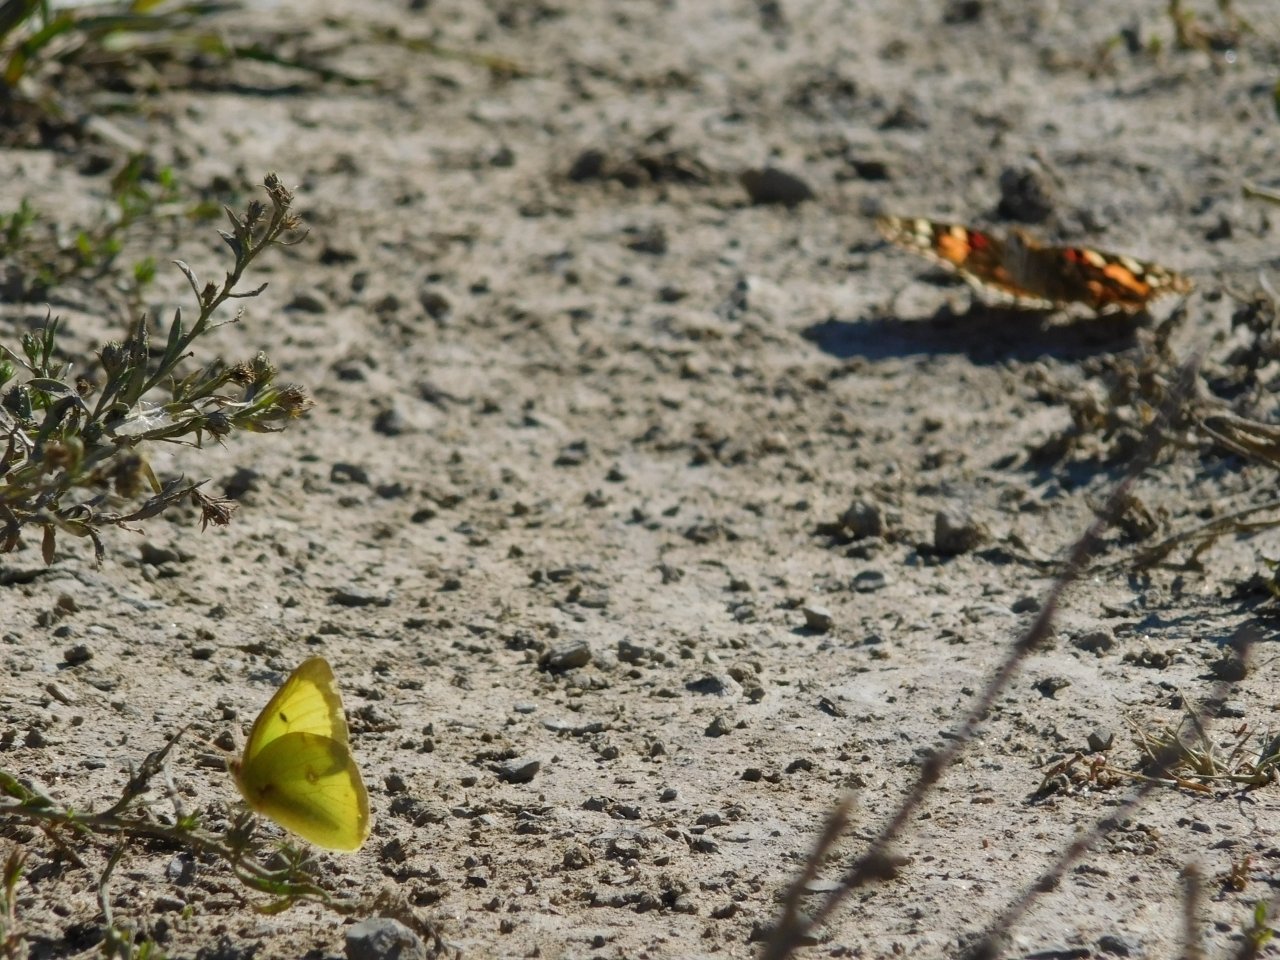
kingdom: Animalia
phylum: Arthropoda
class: Insecta
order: Lepidoptera
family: Pieridae
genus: Colias
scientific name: Colias philodice
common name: Clouded Sulphur
